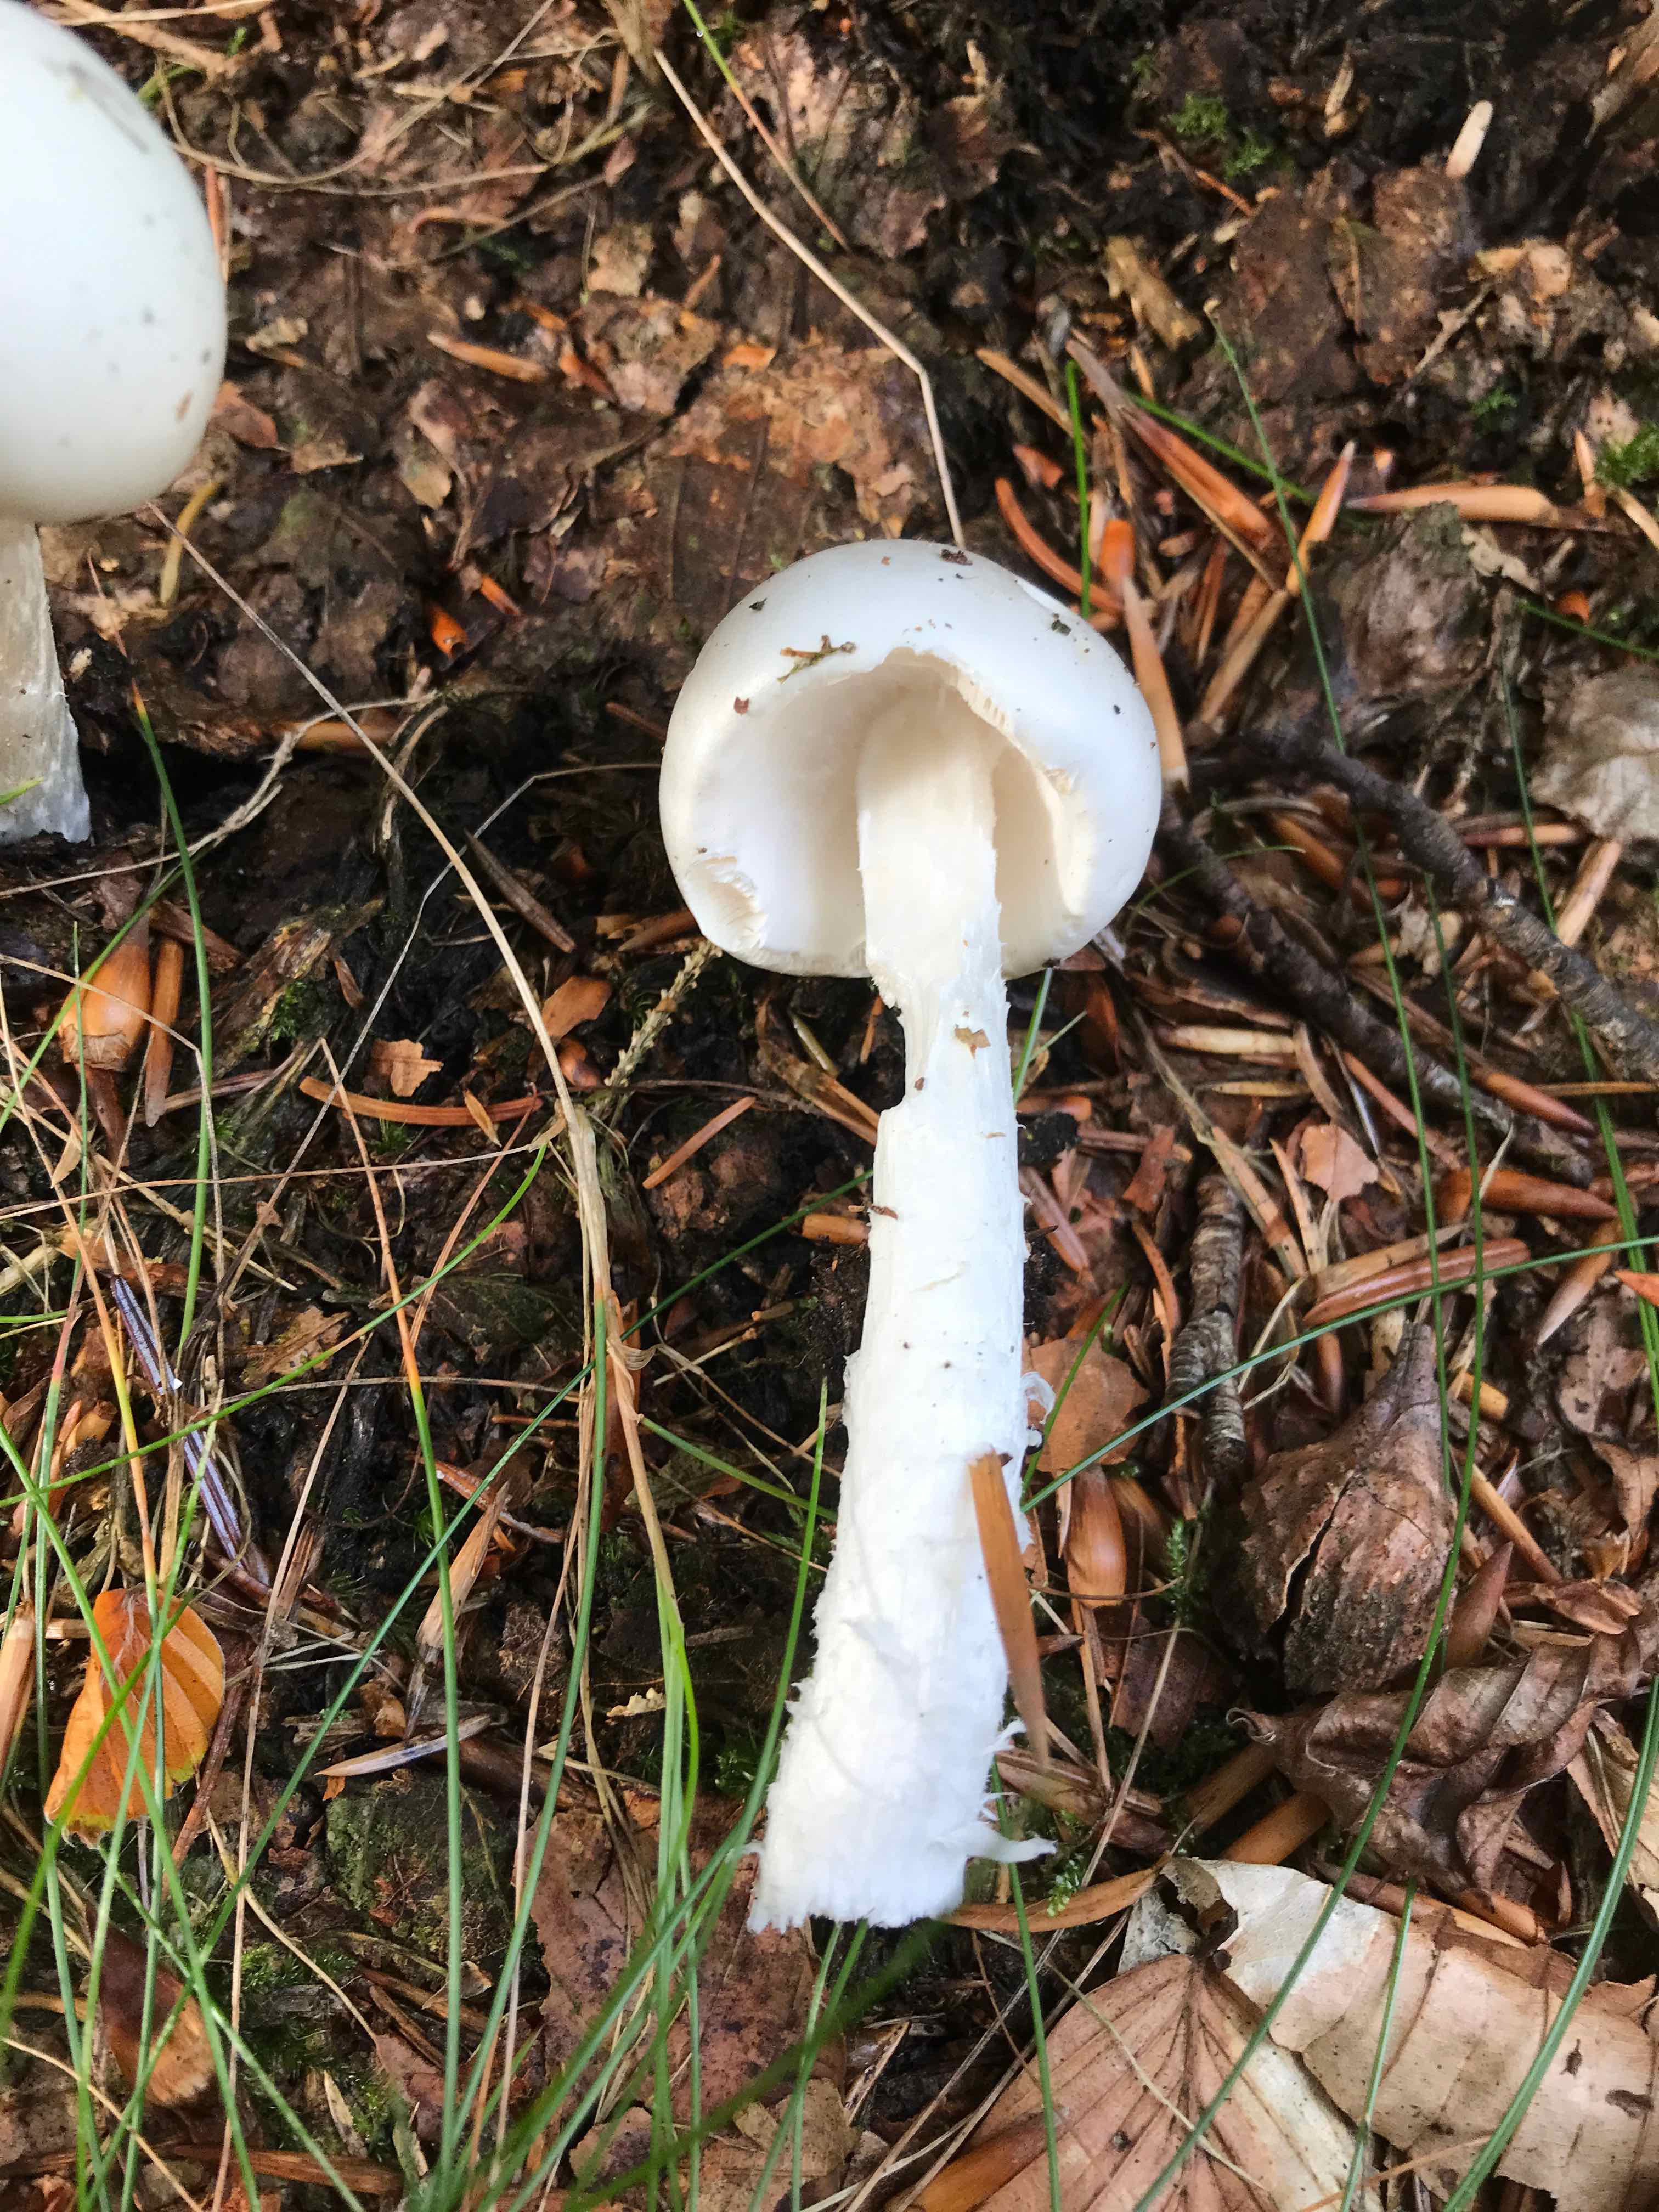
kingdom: Fungi
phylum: Basidiomycota
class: Agaricomycetes
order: Agaricales
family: Amanitaceae
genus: Amanita
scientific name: Amanita virosa
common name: snehvid fluesvamp
